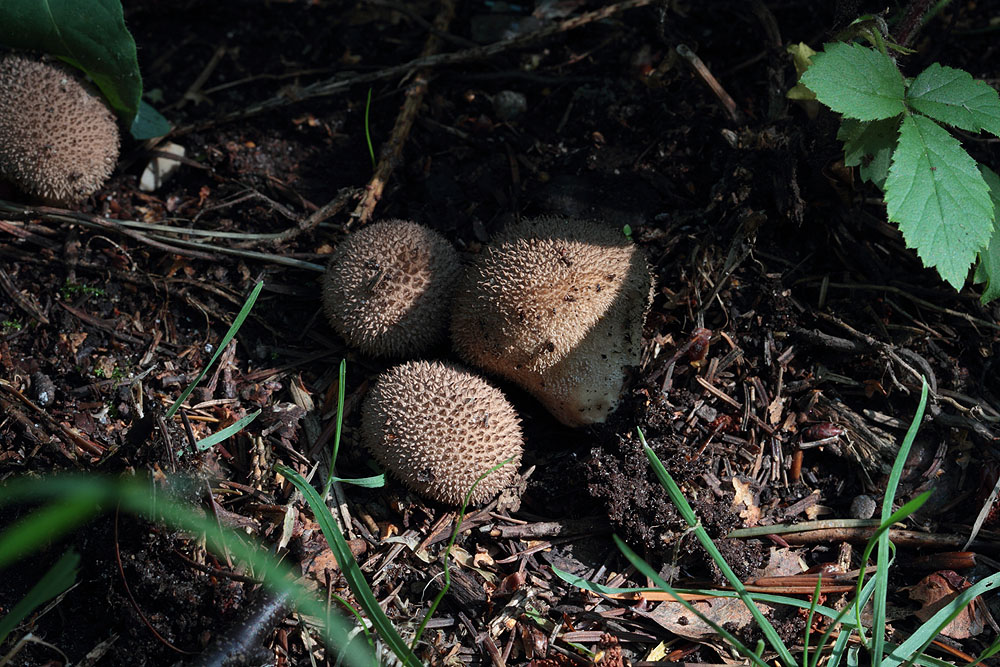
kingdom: Fungi
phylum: Basidiomycota
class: Agaricomycetes
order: Agaricales
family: Lycoperdaceae
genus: Lycoperdon
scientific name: Lycoperdon nigrescens
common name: sortagtig støvbold
